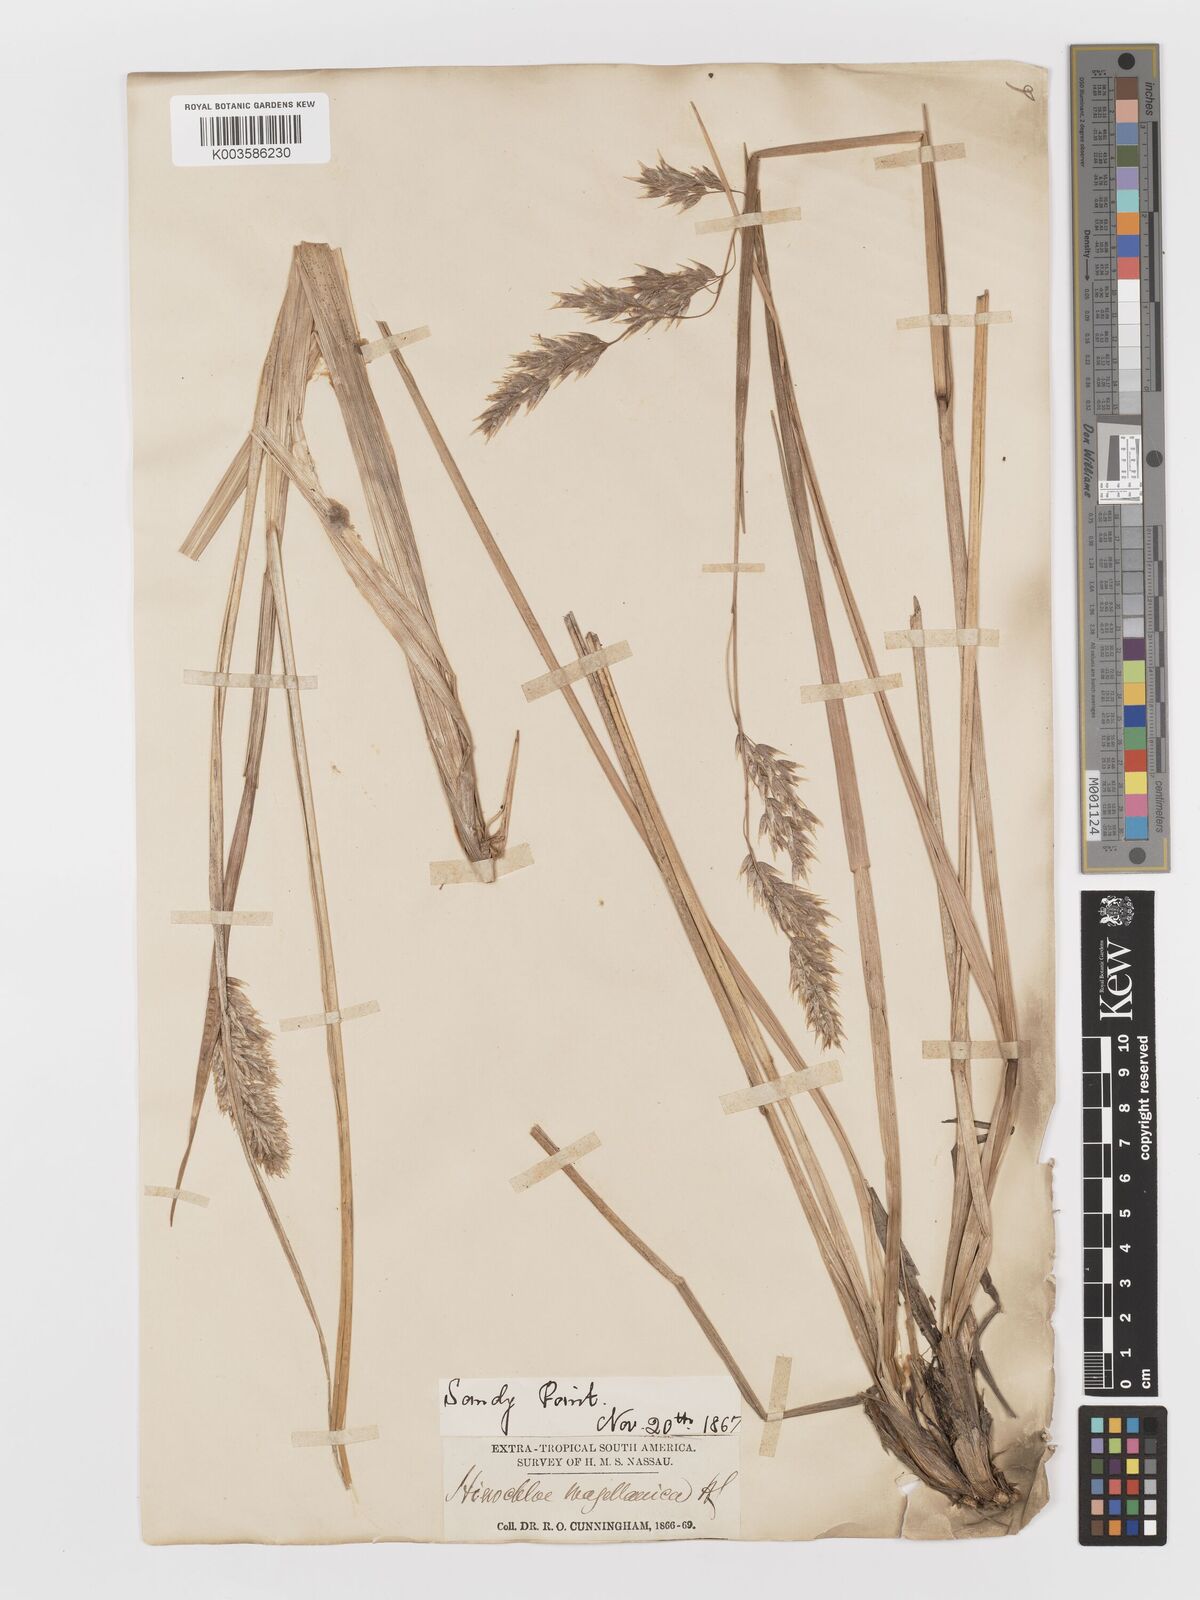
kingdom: Plantae
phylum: Tracheophyta
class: Liliopsida
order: Poales
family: Poaceae
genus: Anthoxanthum
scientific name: Anthoxanthum redolens
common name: Sweet holy grass
